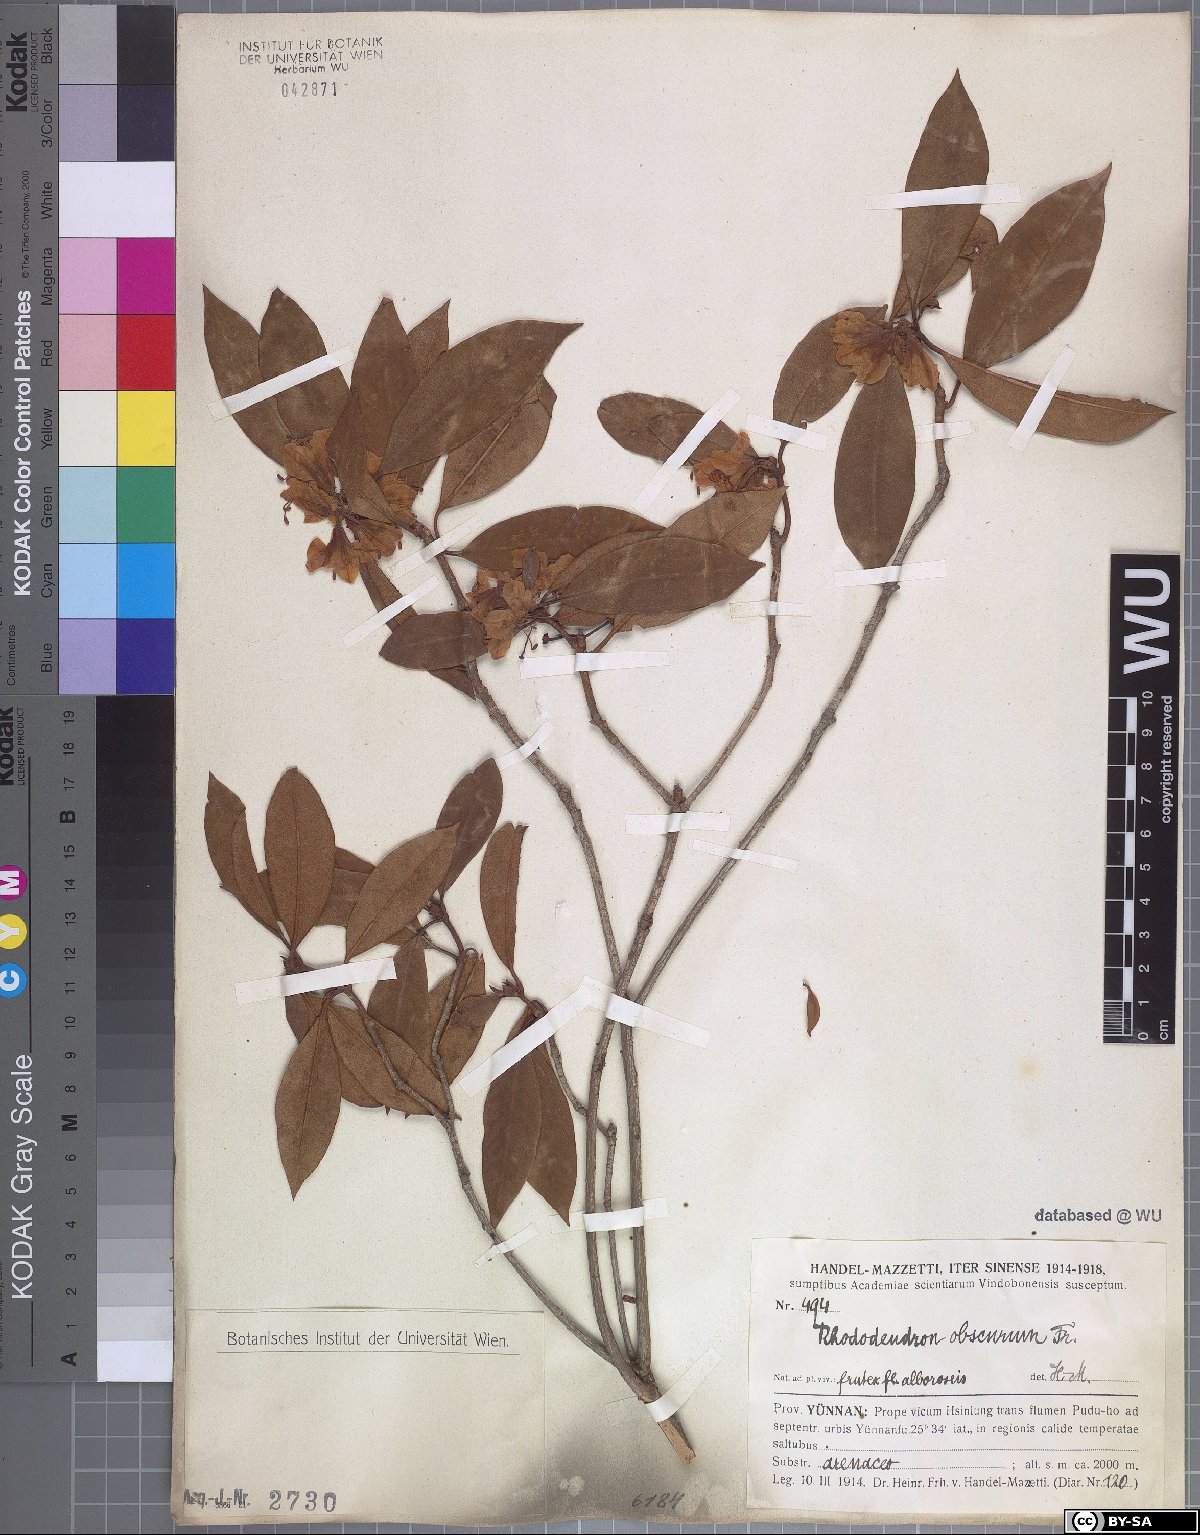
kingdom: Plantae
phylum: Tracheophyta
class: Magnoliopsida
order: Ericales
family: Ericaceae
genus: Rhododendron
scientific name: Rhododendron benomense
